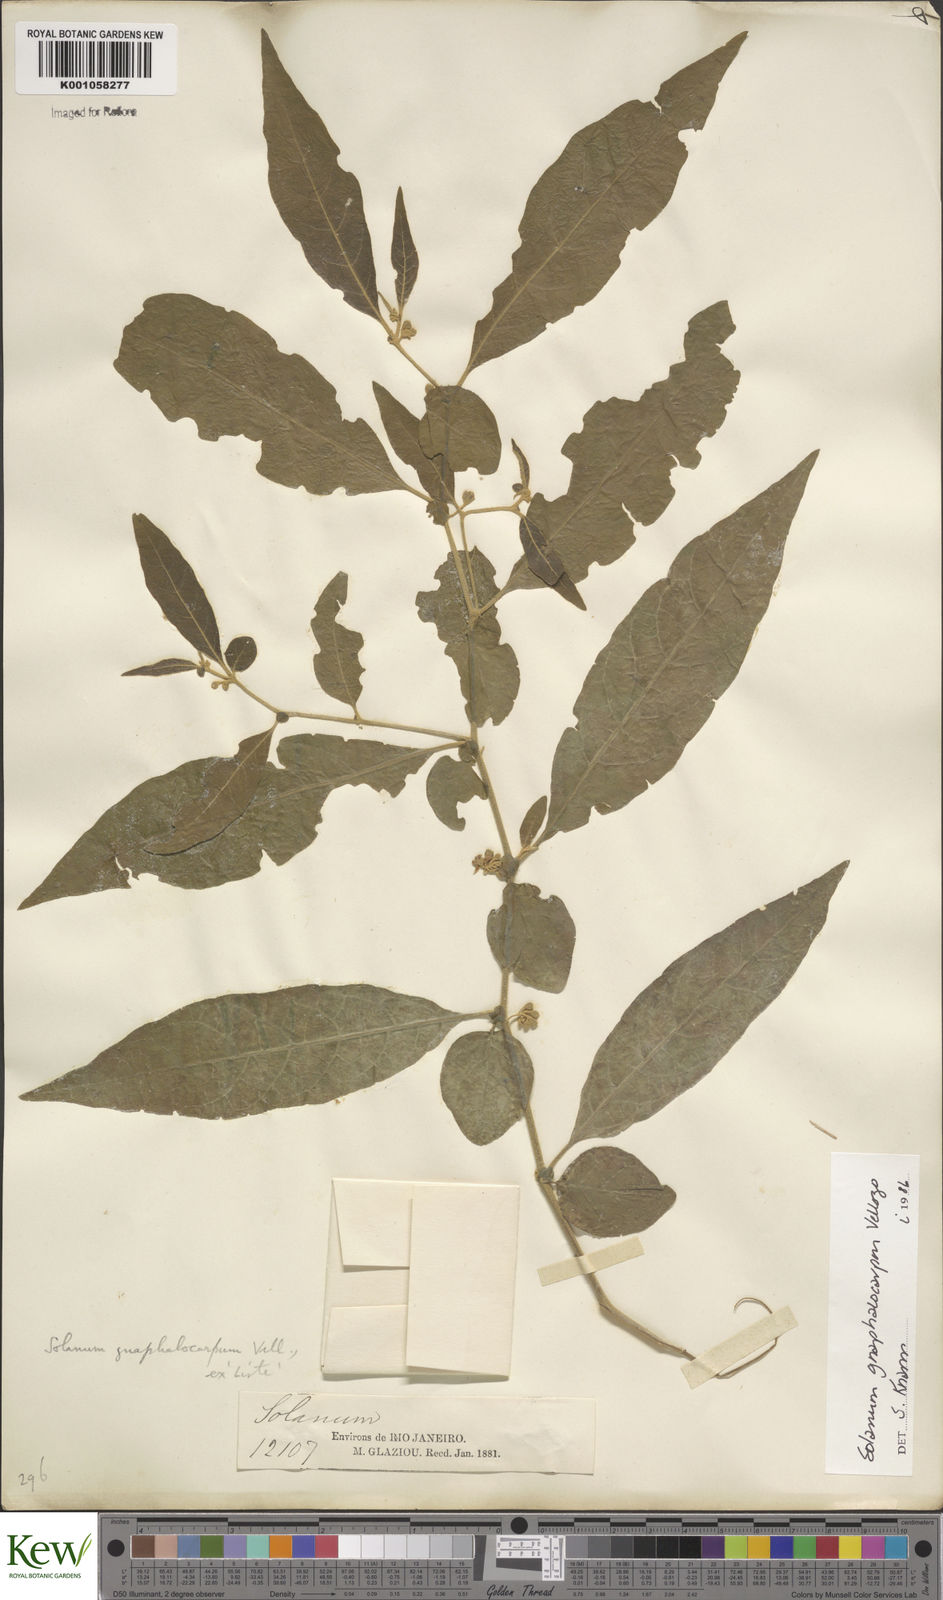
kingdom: Plantae
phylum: Tracheophyta
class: Magnoliopsida
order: Solanales
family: Solanaceae
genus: Solanum
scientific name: Solanum gnaphalocarpum
